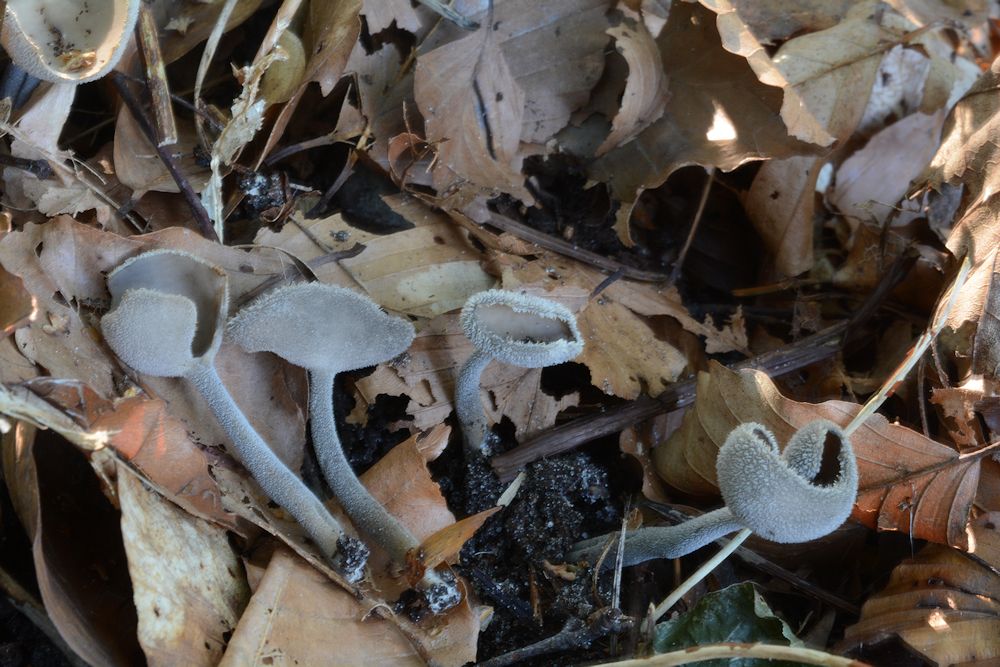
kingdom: Fungi
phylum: Ascomycota
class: Pezizomycetes
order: Pezizales
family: Helvellaceae
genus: Helvella
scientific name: Helvella macropus
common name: højstokket foldhat
